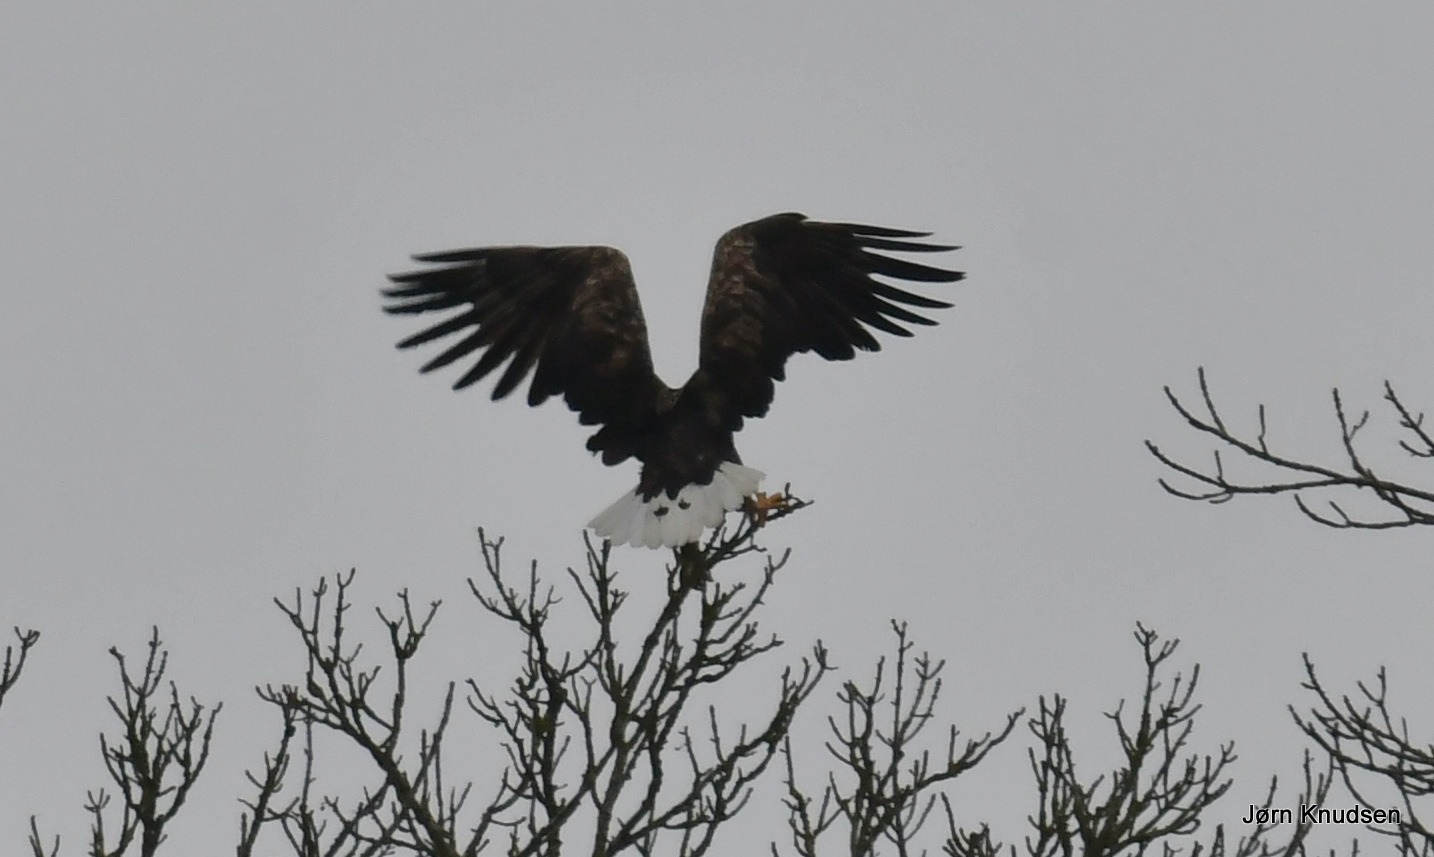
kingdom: Animalia
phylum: Chordata
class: Aves
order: Accipitriformes
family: Accipitridae
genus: Haliaeetus
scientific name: Haliaeetus albicilla
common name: Havørn
